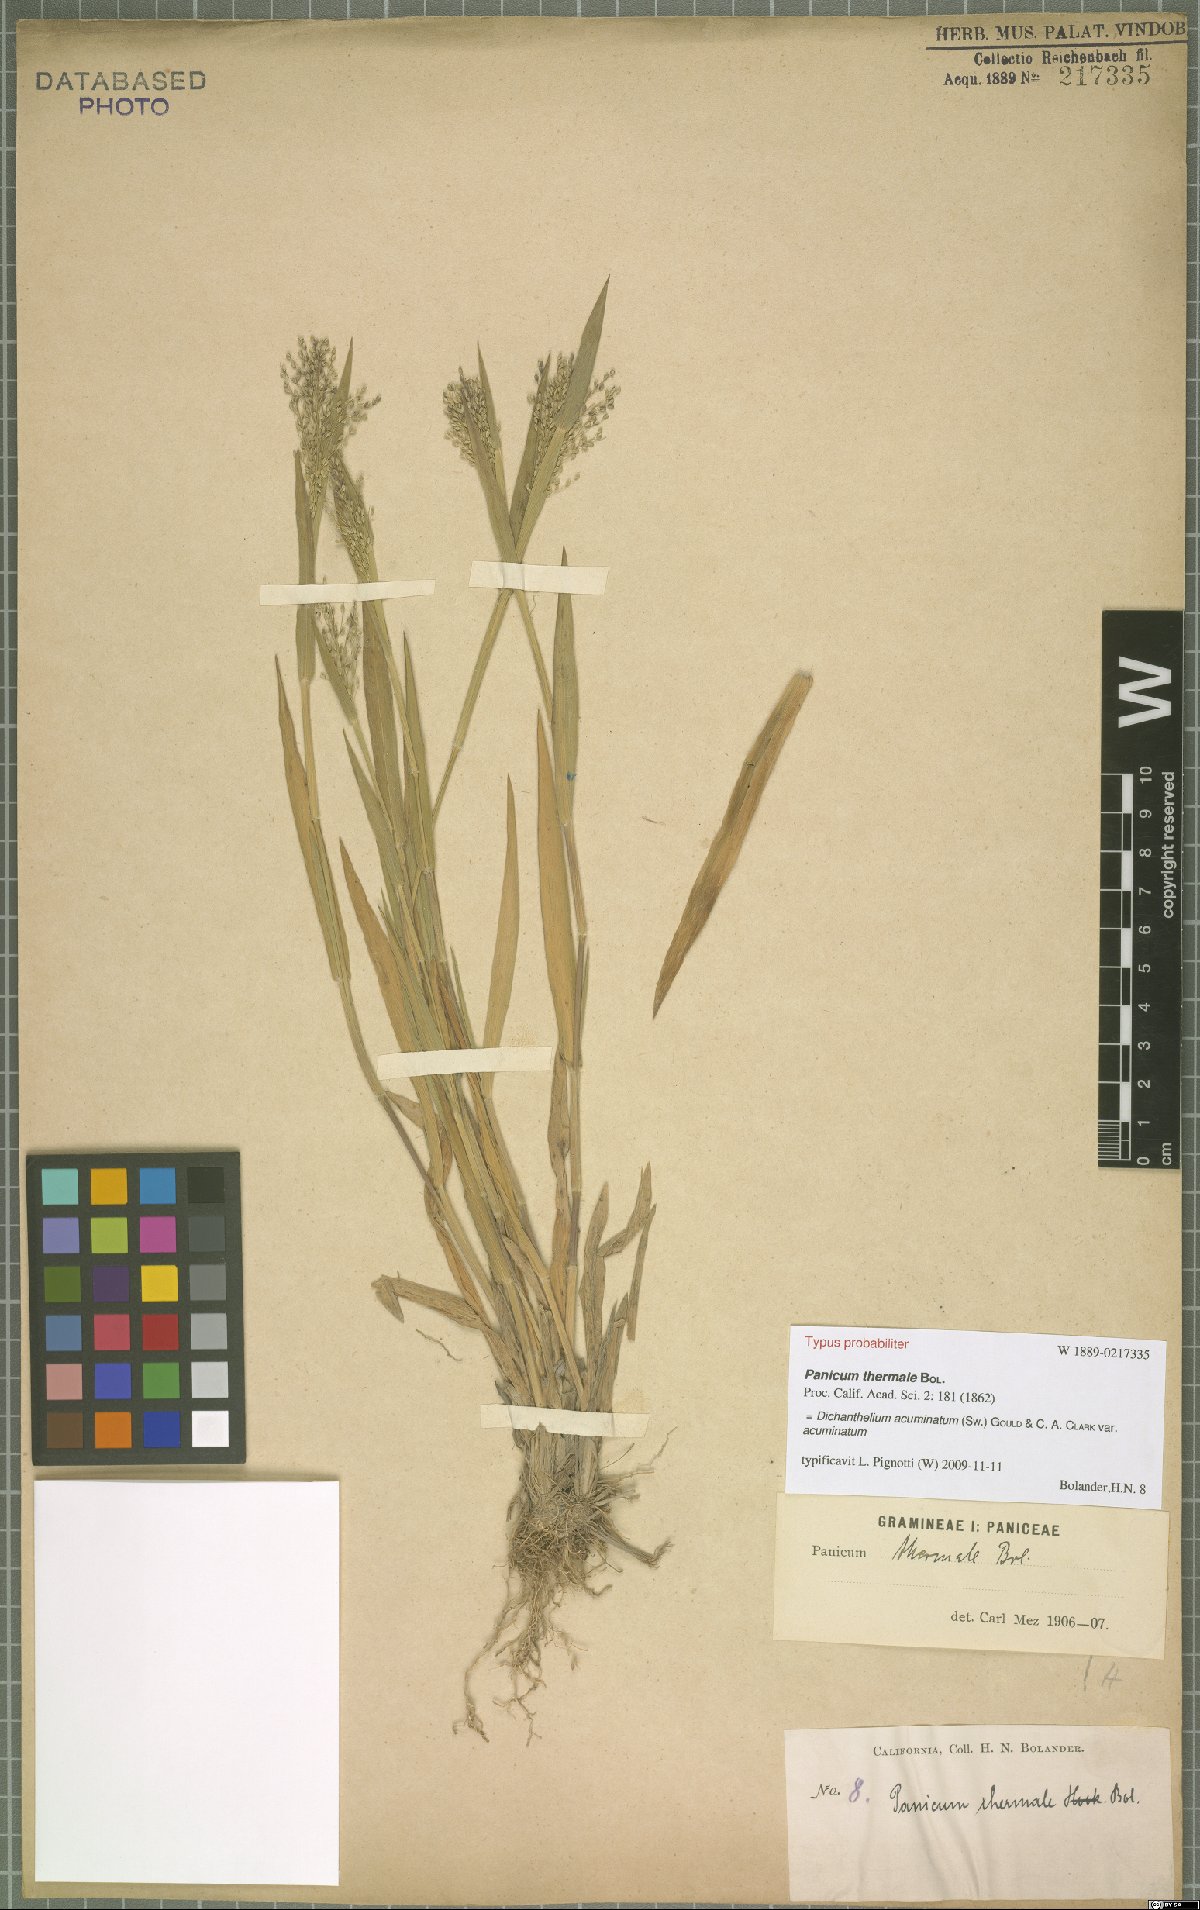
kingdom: Plantae
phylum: Tracheophyta
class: Liliopsida
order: Poales
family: Poaceae
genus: Dichanthelium
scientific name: Dichanthelium acuminatum
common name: Hairy panic grass
